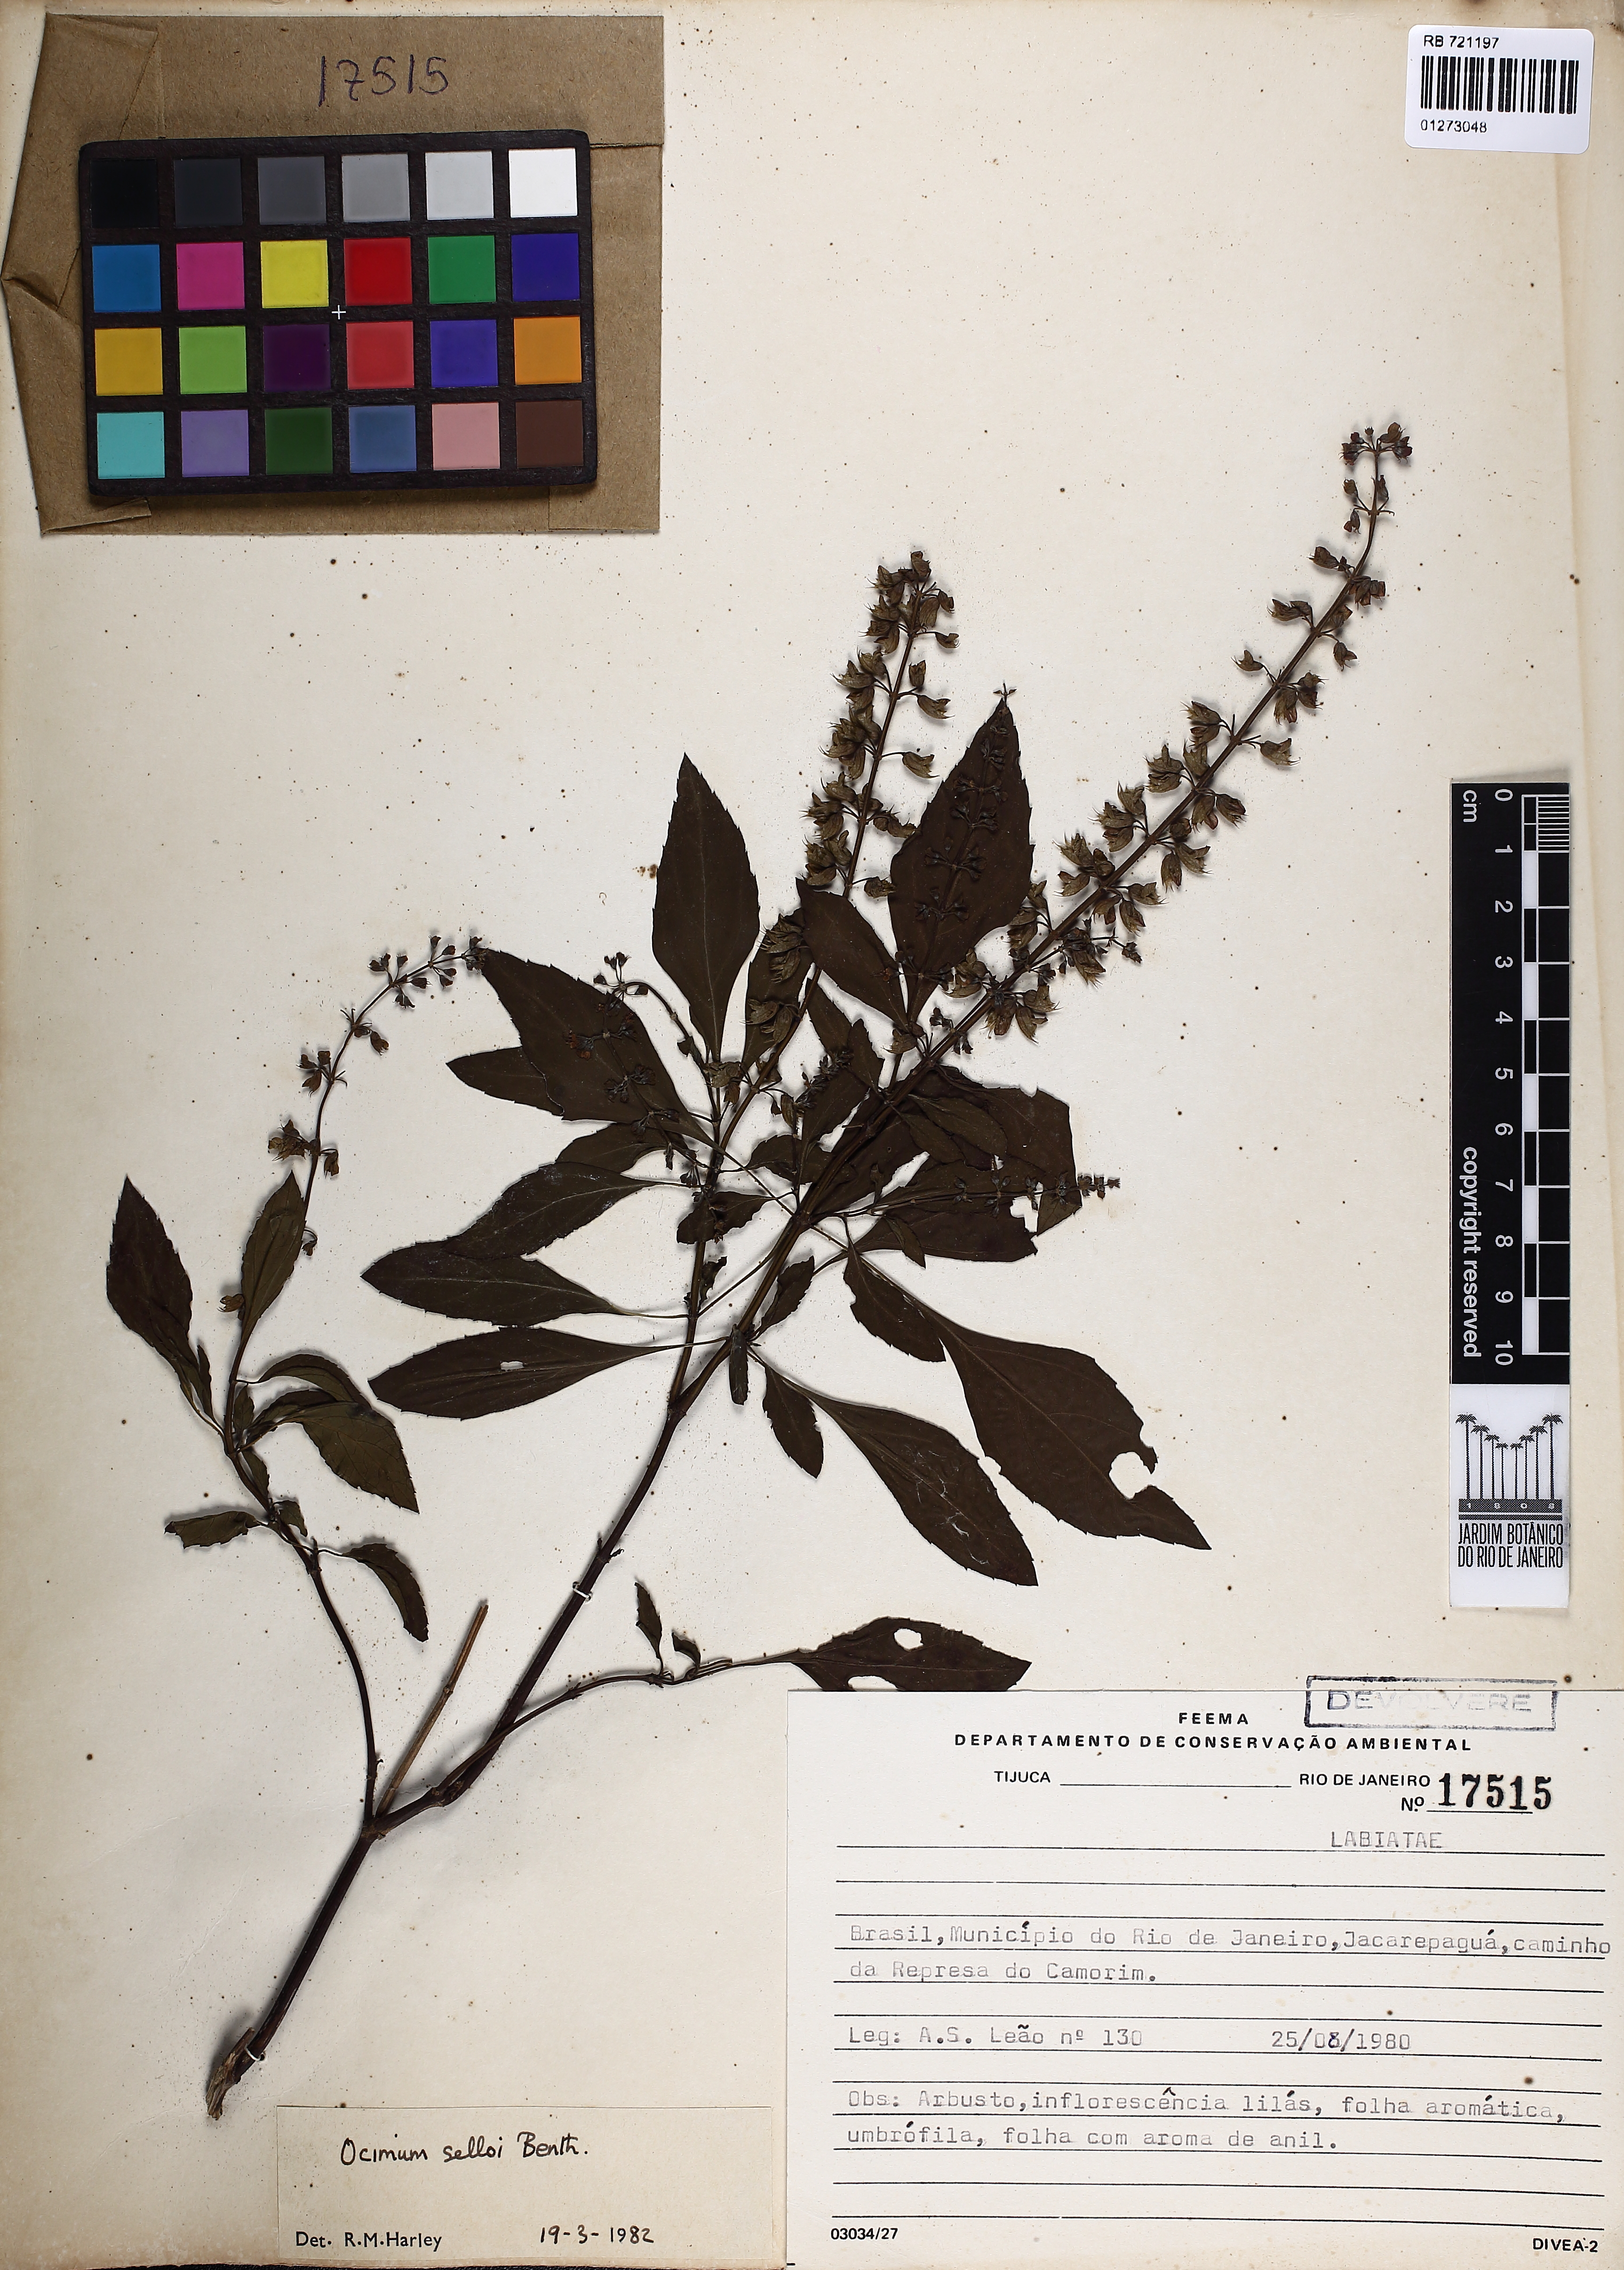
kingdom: Plantae
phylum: Tracheophyta
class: Magnoliopsida
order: Lamiales
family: Lamiaceae
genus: Ocimum
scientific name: Ocimum carnosum
